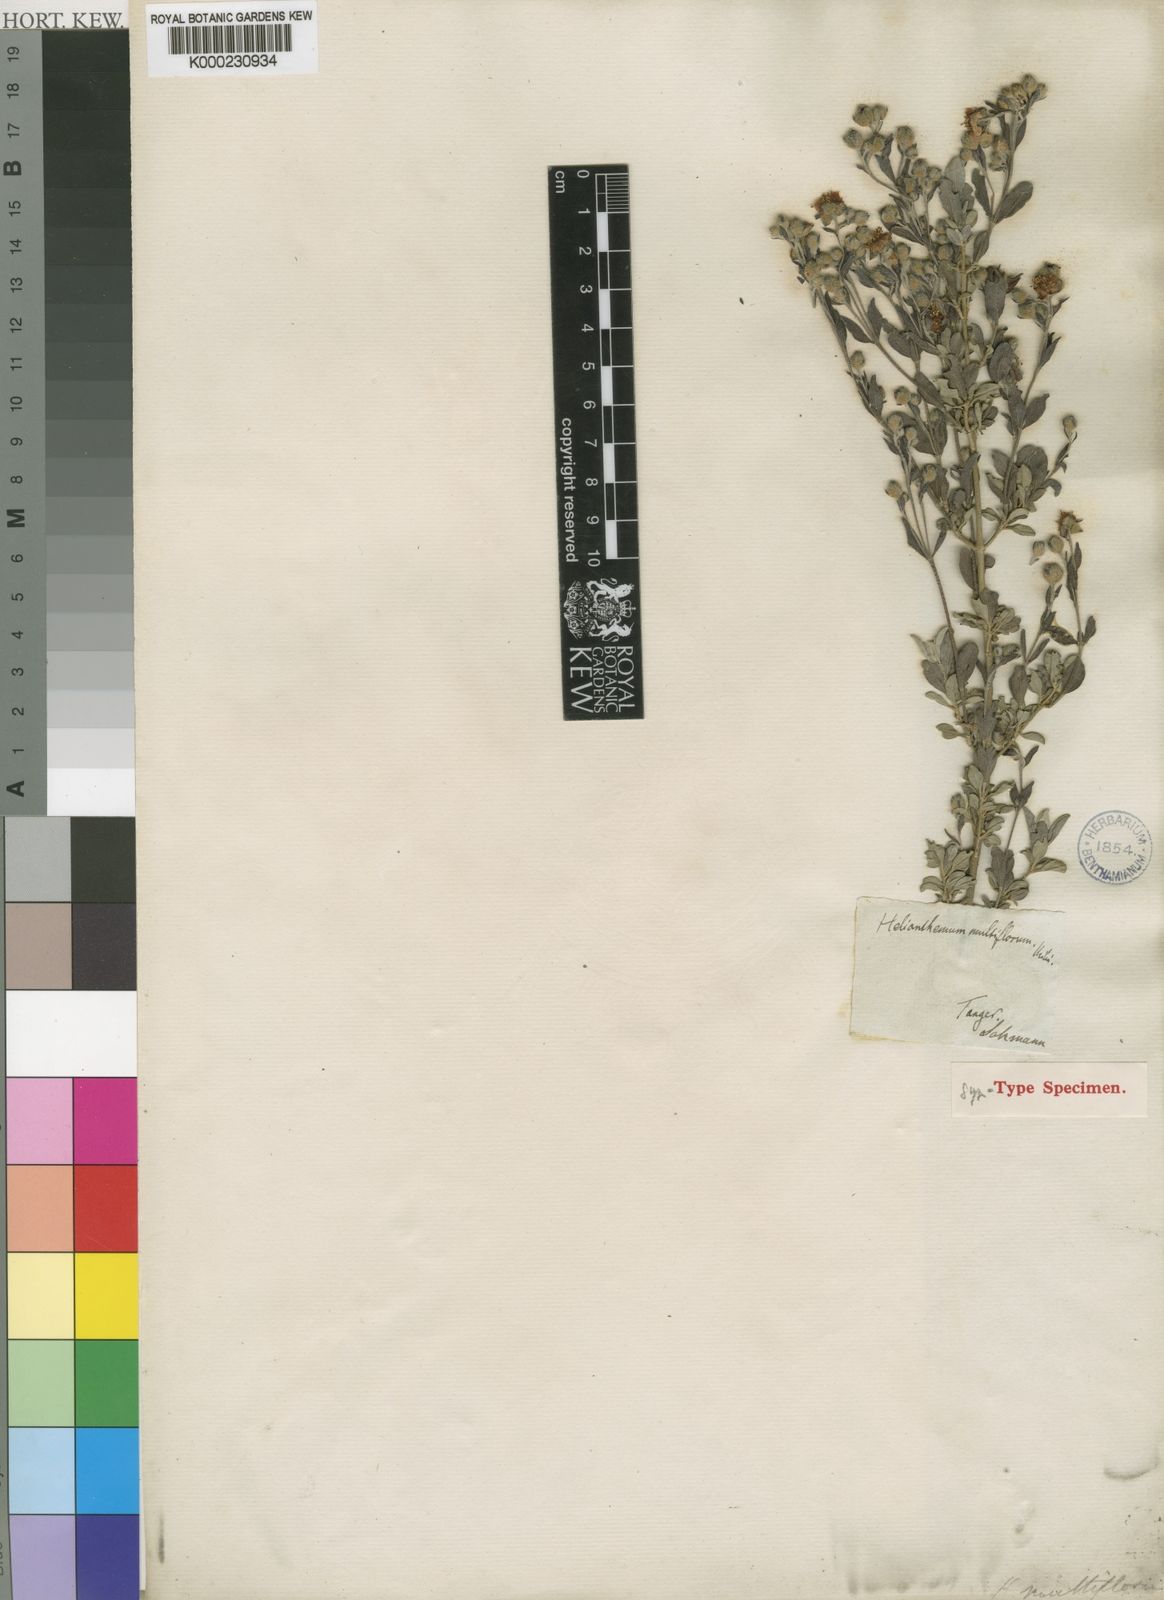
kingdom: Plantae
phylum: Tracheophyta
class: Magnoliopsida
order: Malvales
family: Cistaceae
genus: Halimium
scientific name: Halimium halimifolium
